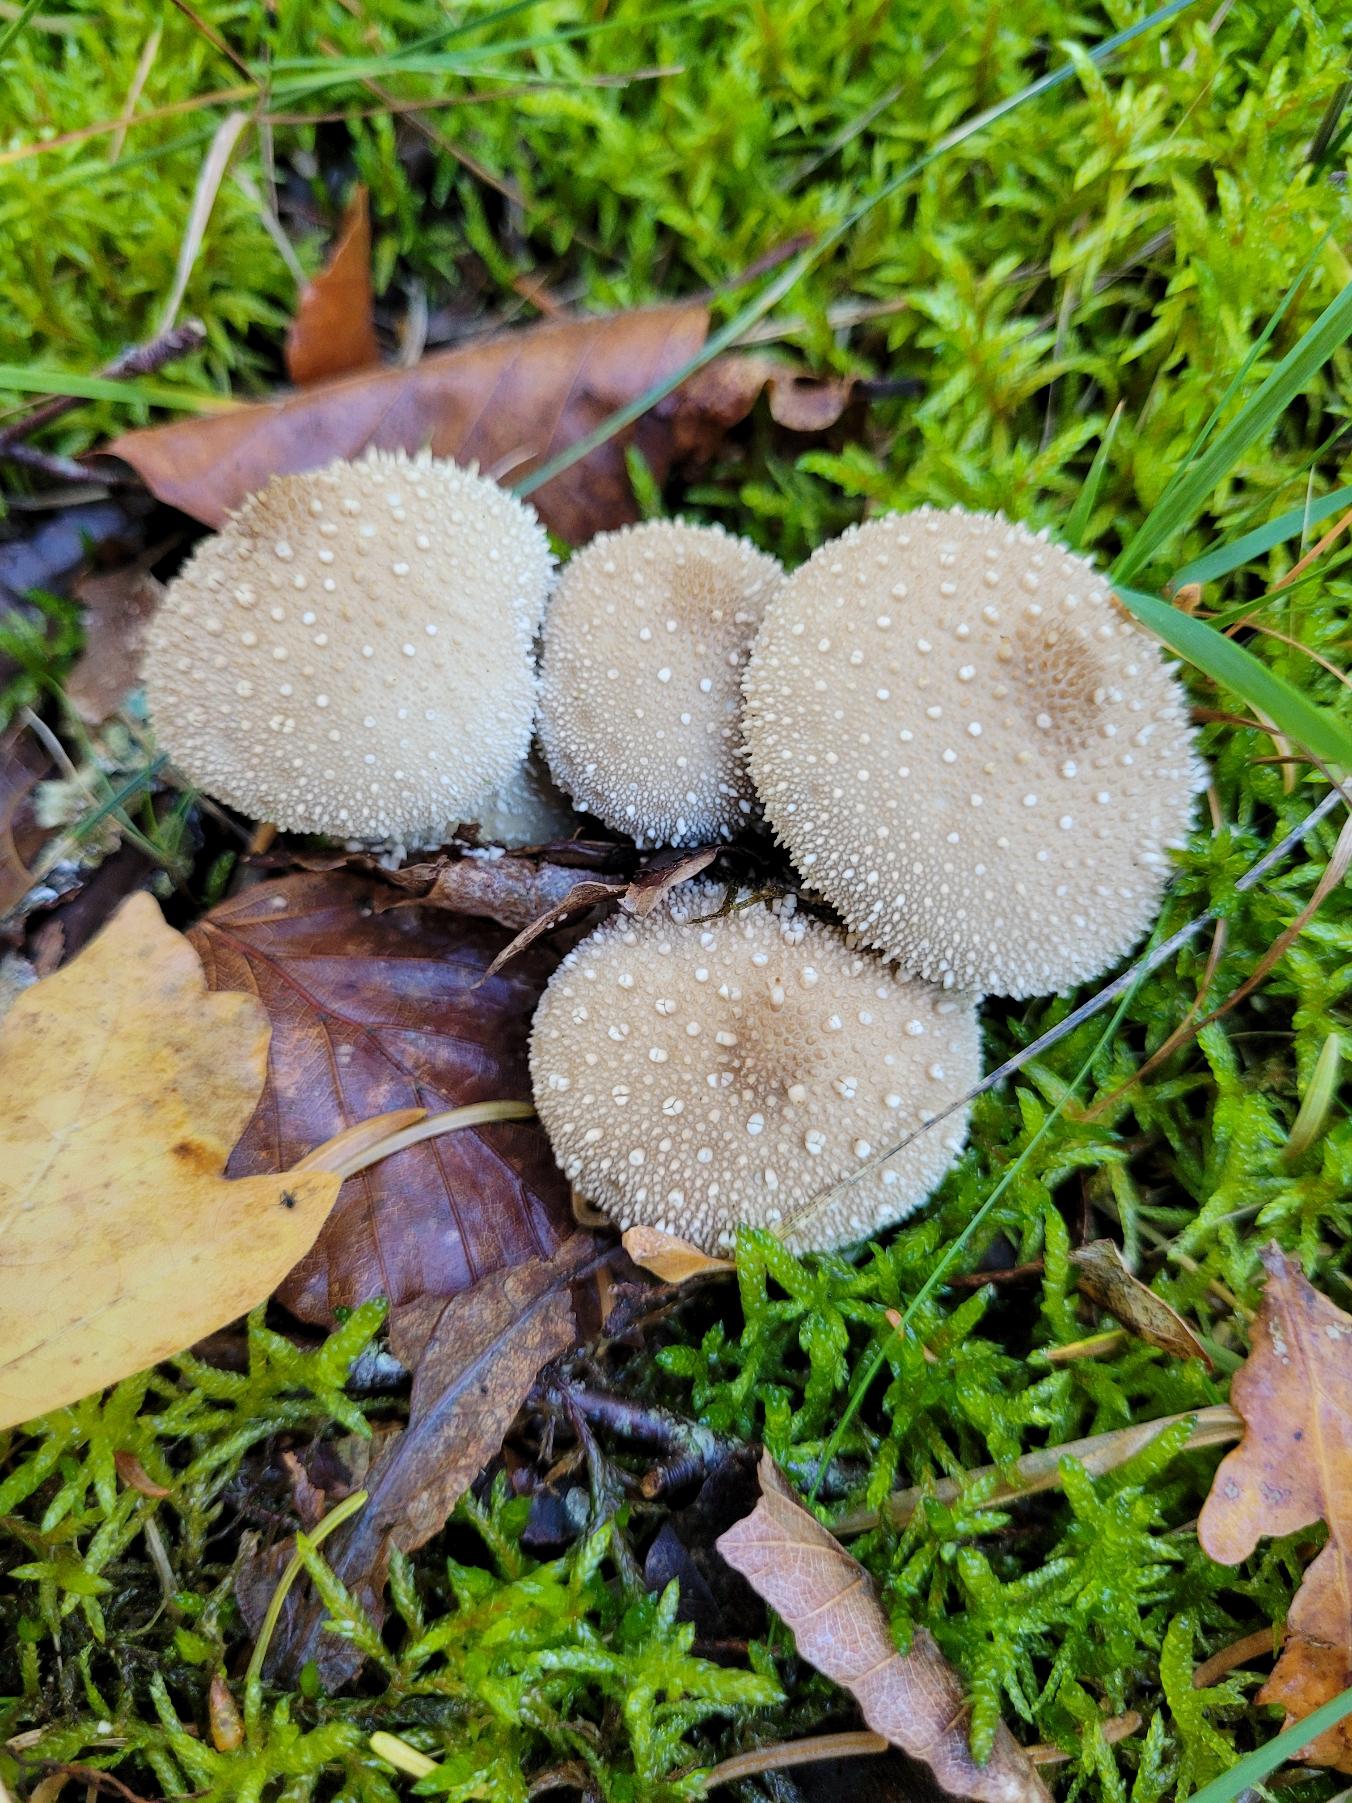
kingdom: Fungi
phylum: Basidiomycota
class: Agaricomycetes
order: Agaricales
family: Lycoperdaceae
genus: Lycoperdon
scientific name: Lycoperdon perlatum
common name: Krystal-støvbold
